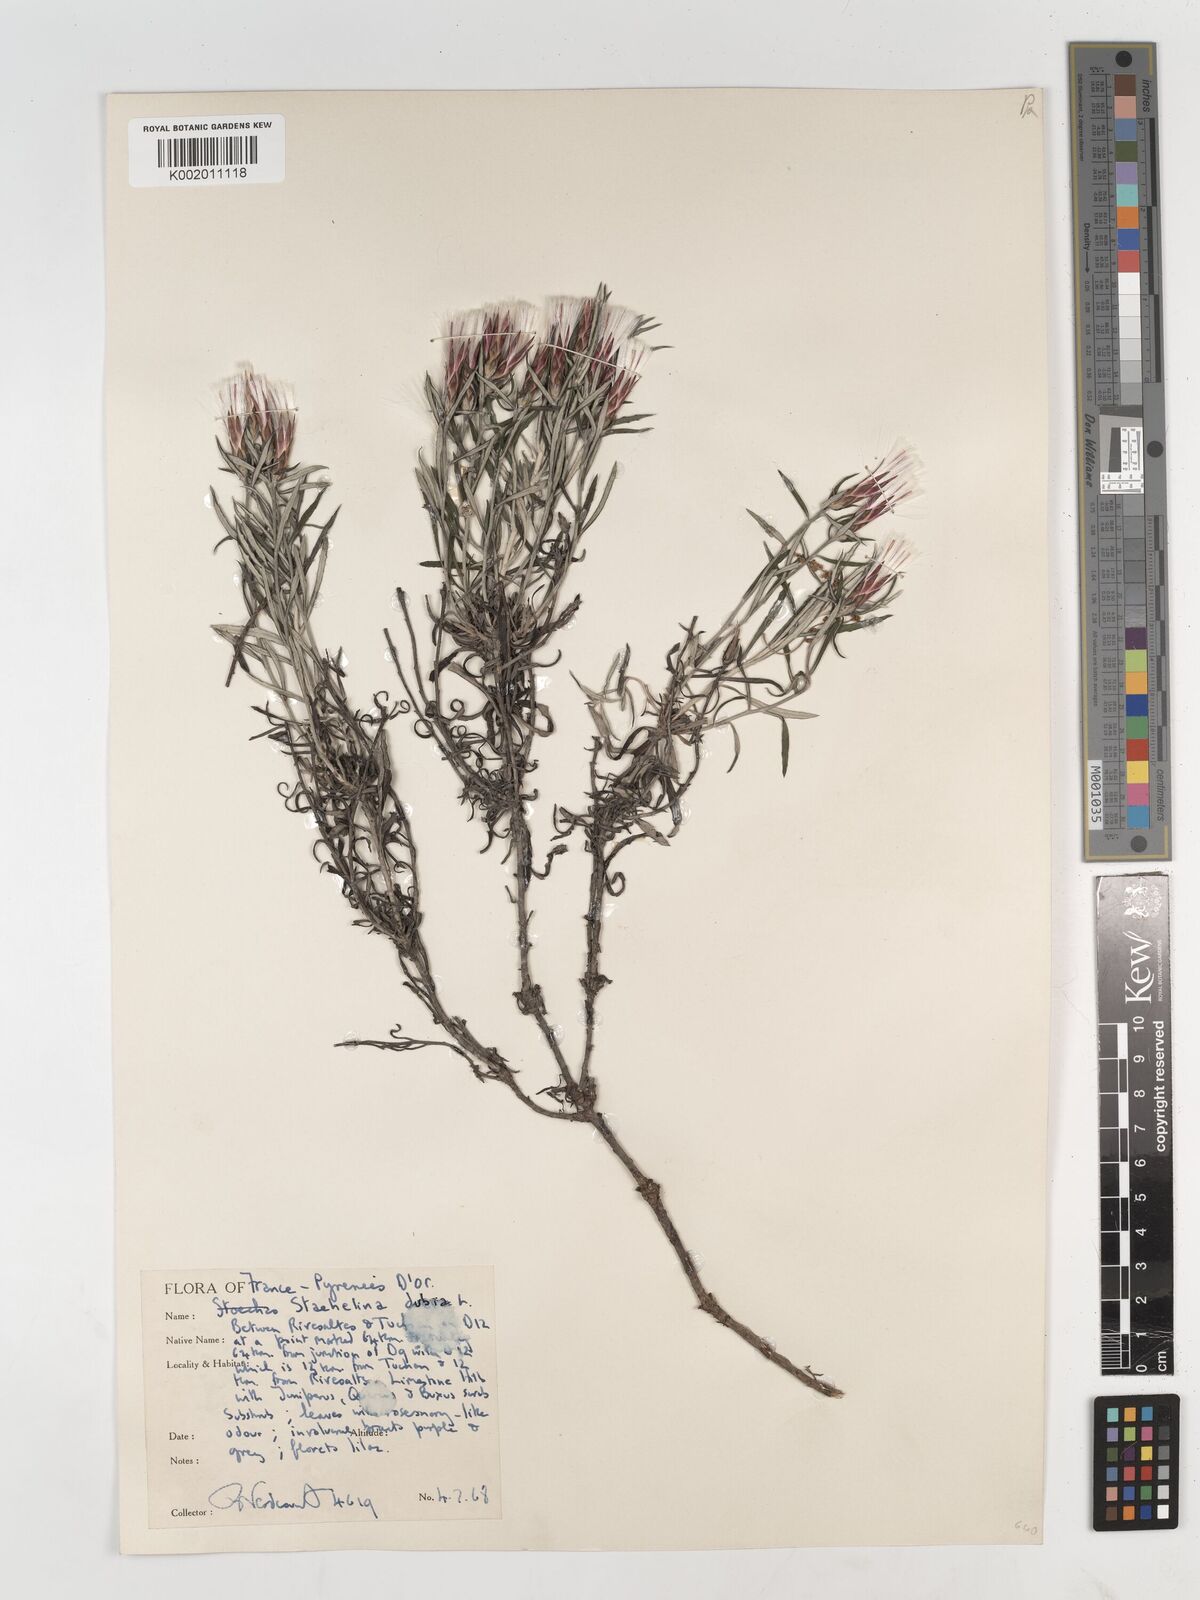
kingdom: Plantae
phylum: Tracheophyta
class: Magnoliopsida
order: Asterales
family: Asteraceae
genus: Staehelina
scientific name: Staehelina dubia
